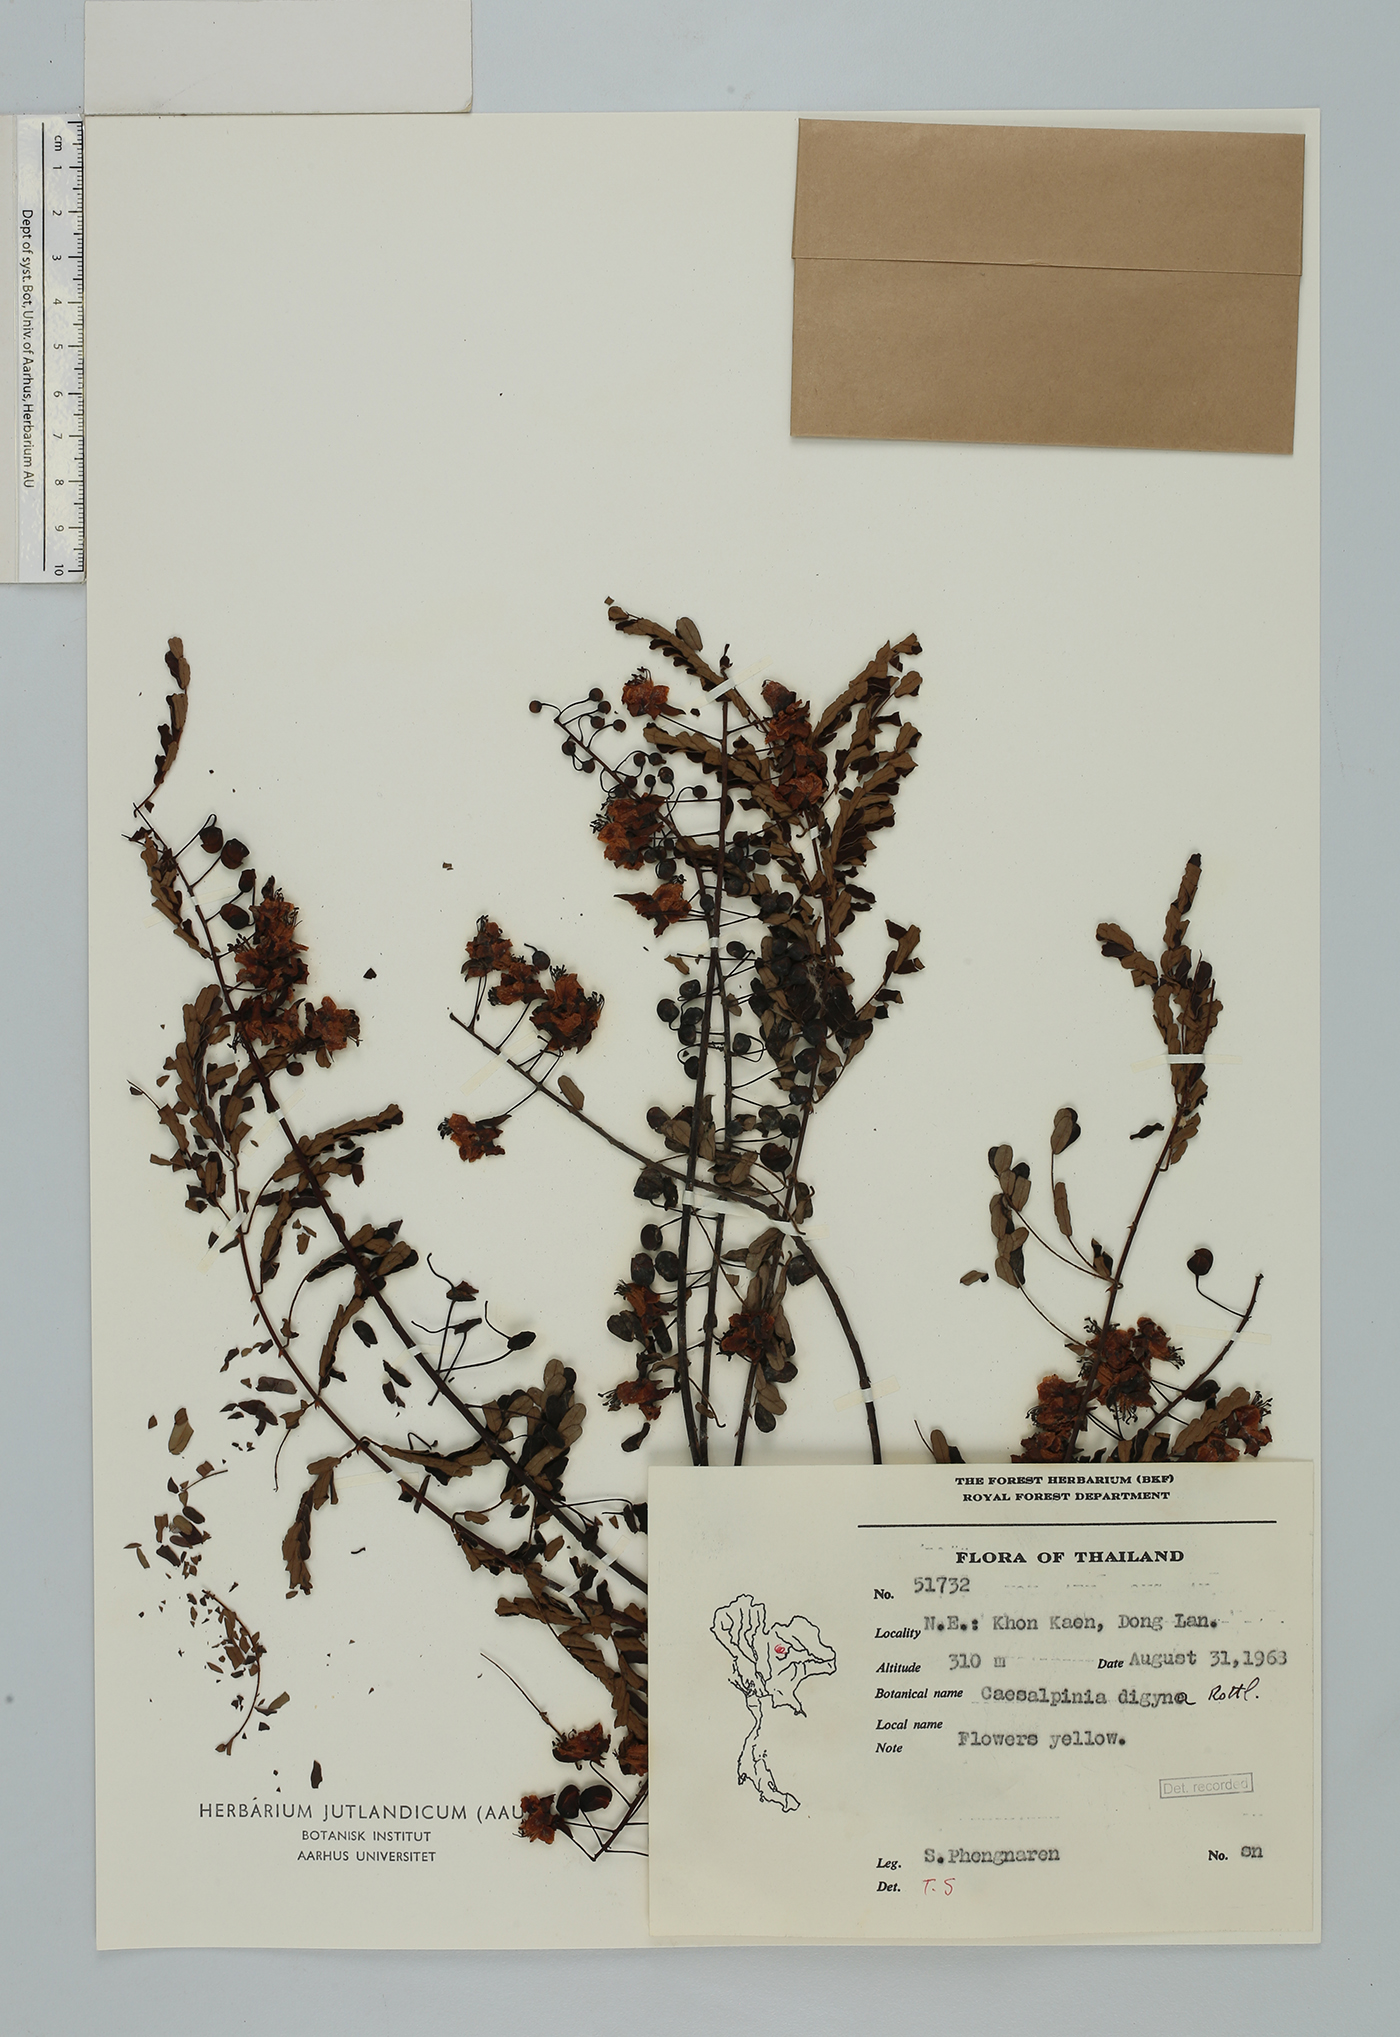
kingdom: Plantae
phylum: Tracheophyta
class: Magnoliopsida
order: Fabales
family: Fabaceae
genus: Moullava
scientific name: Moullava digyna
